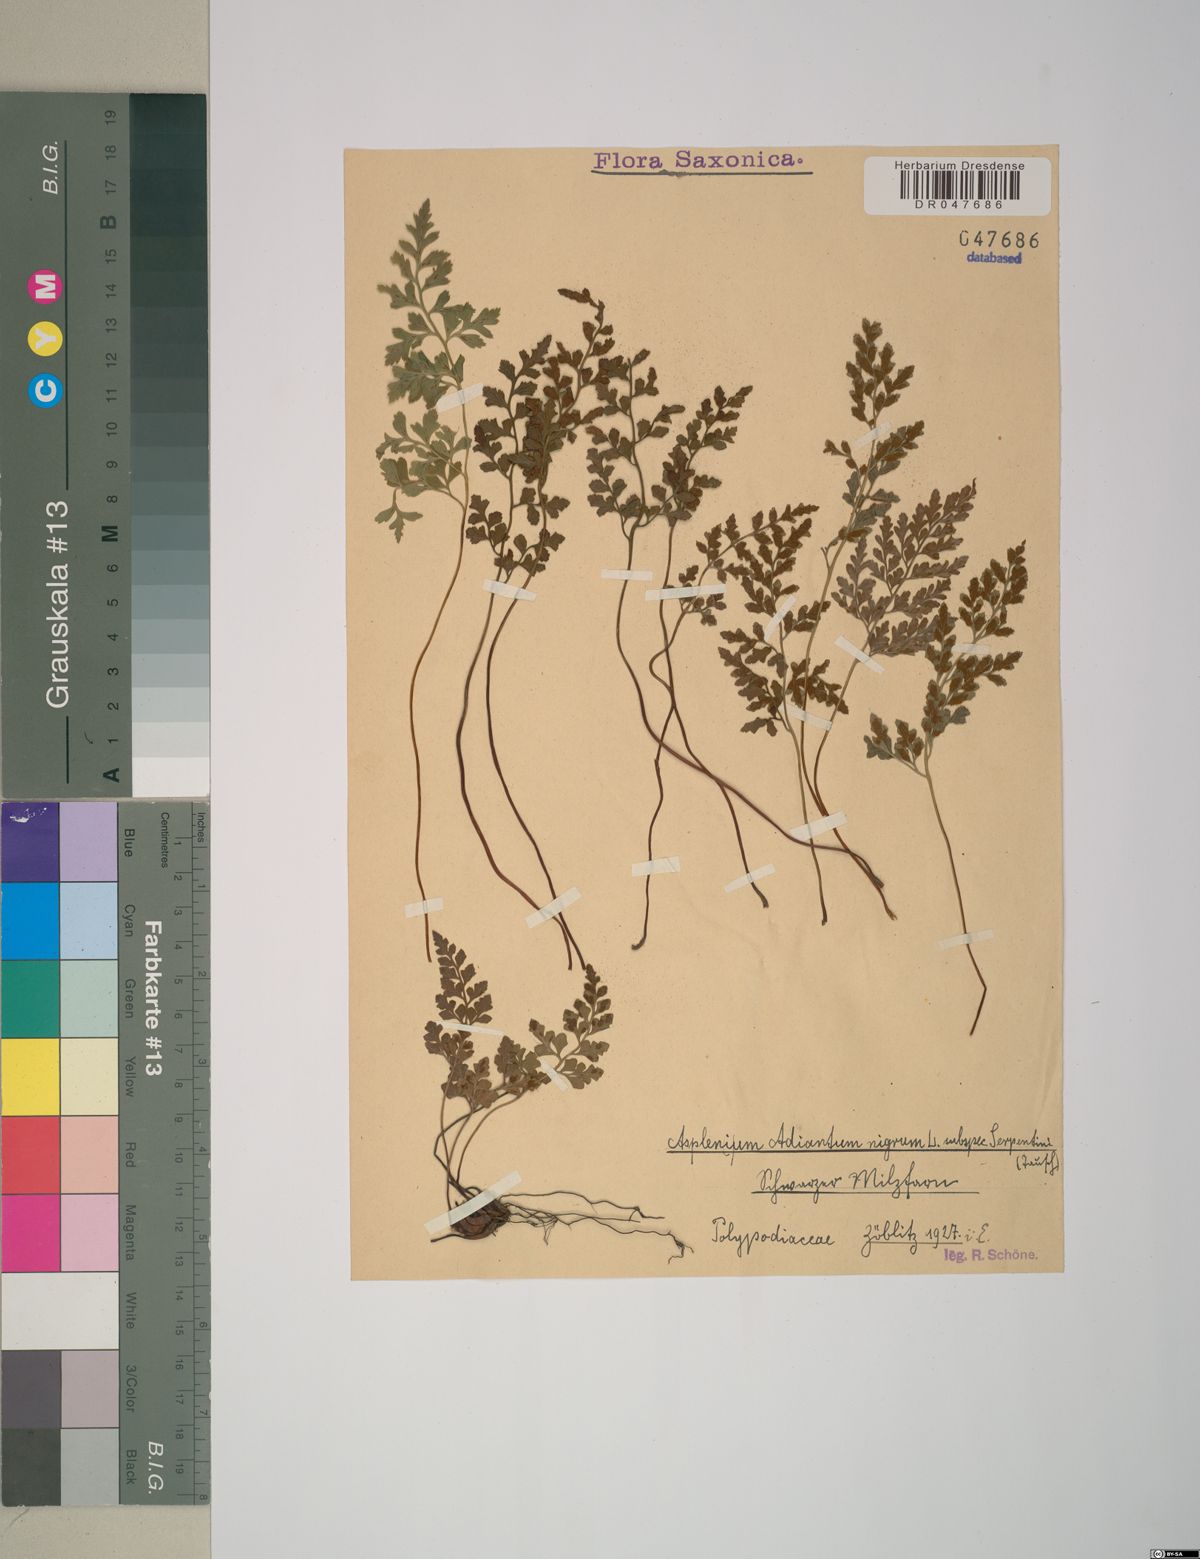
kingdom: Plantae
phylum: Tracheophyta
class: Polypodiopsida
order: Polypodiales
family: Aspleniaceae
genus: Asplenium
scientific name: Asplenium cuneifolium
